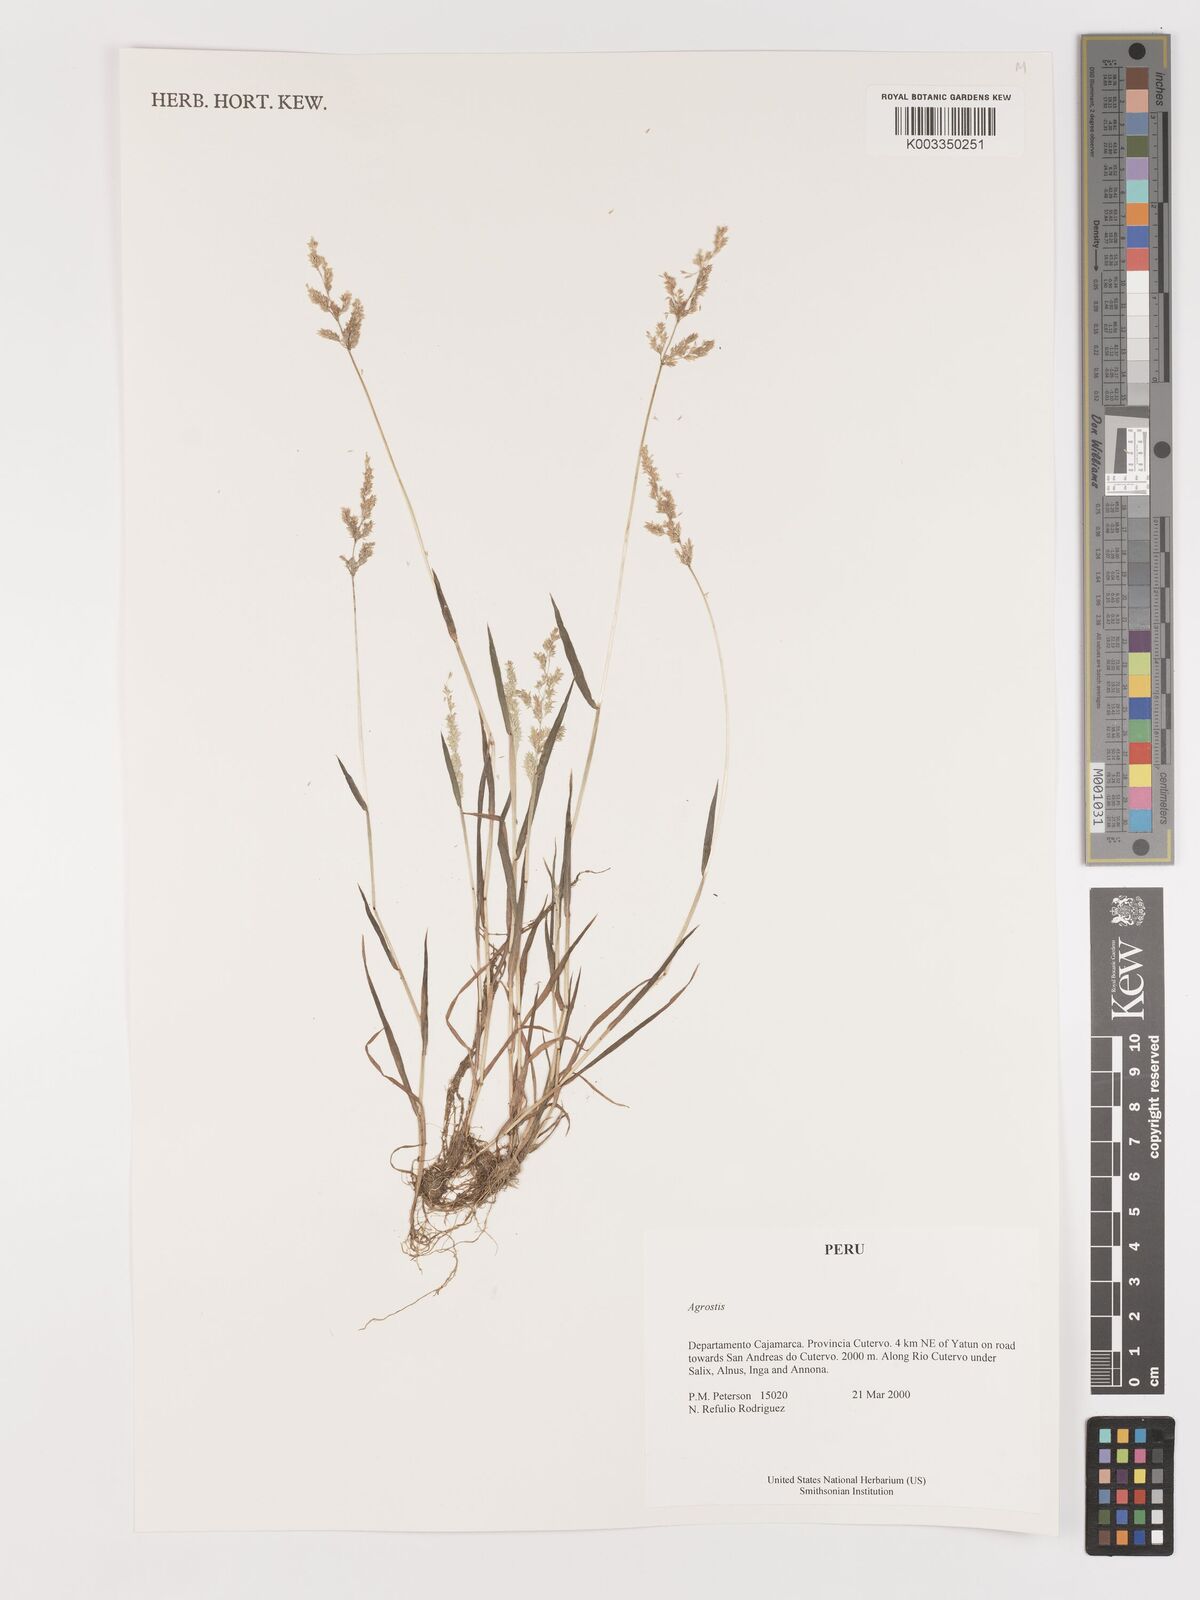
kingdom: Plantae
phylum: Tracheophyta
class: Liliopsida
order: Poales
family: Poaceae
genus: Agrostis
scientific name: Agrostis
